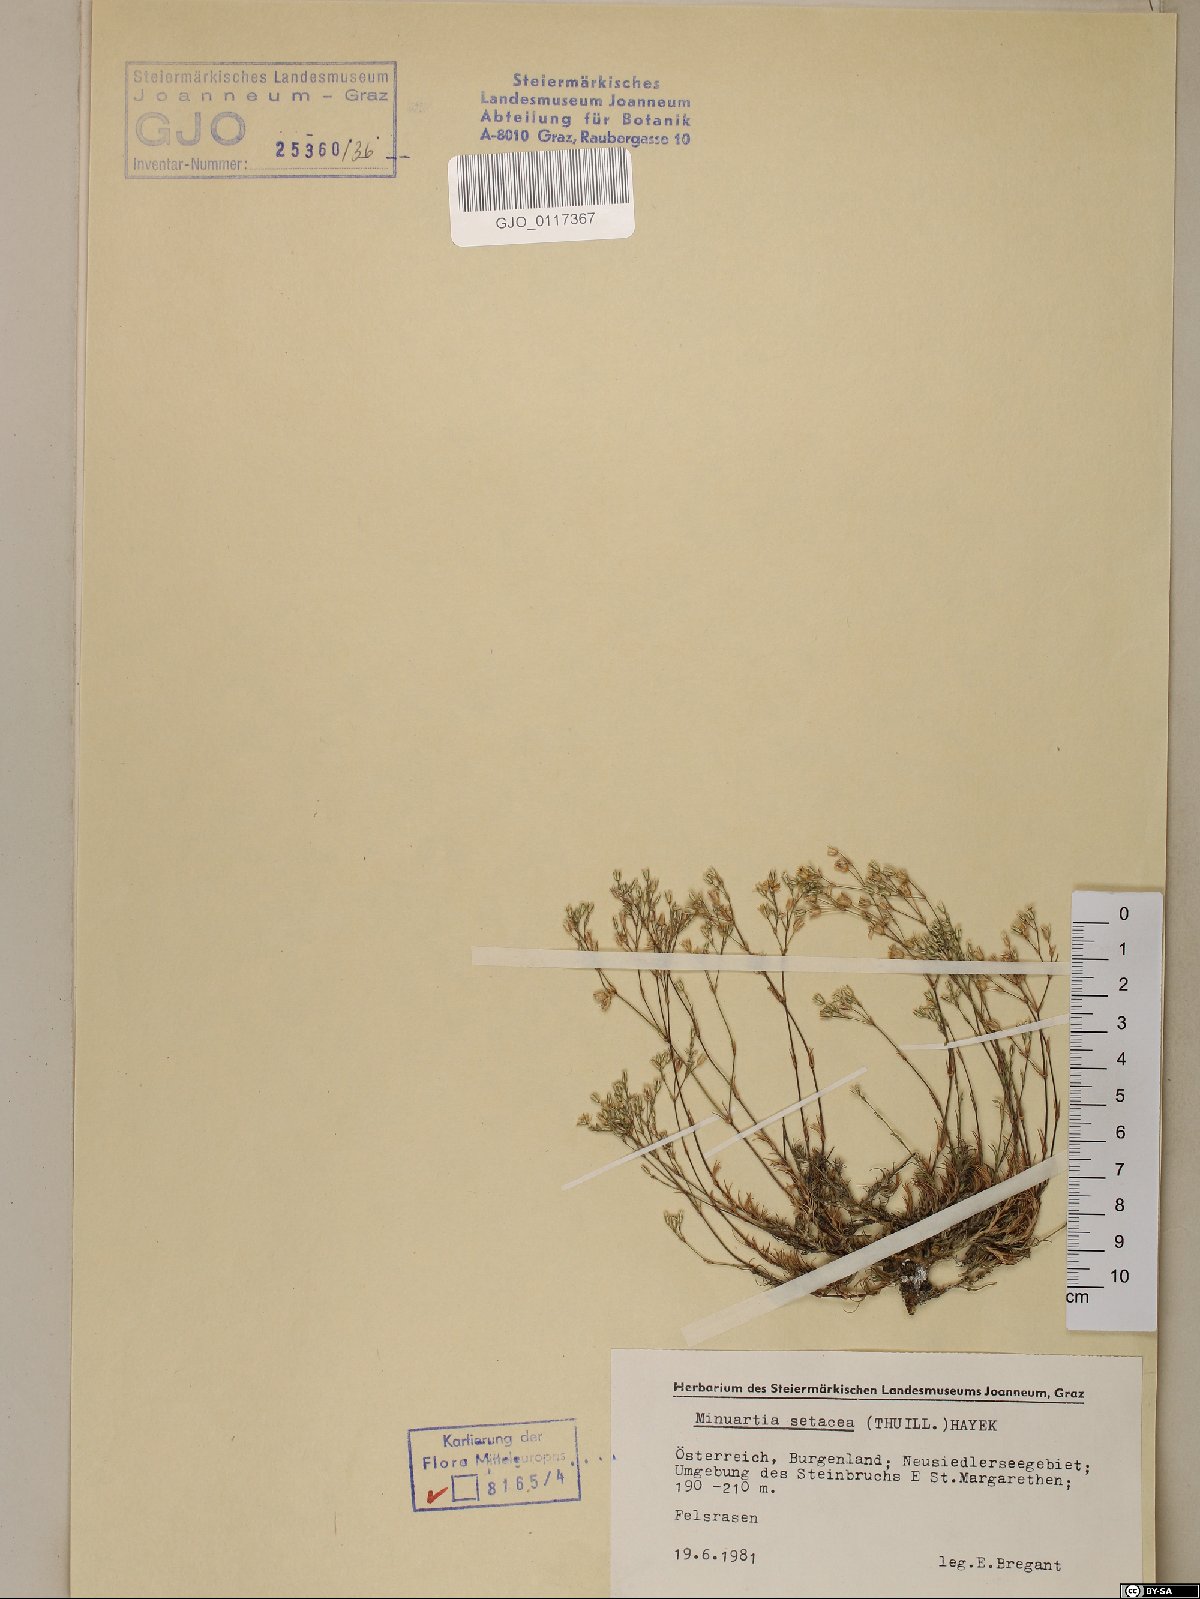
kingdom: Plantae
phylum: Tracheophyta
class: Magnoliopsida
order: Caryophyllales
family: Caryophyllaceae
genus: Minuartia
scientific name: Minuartia setacea
